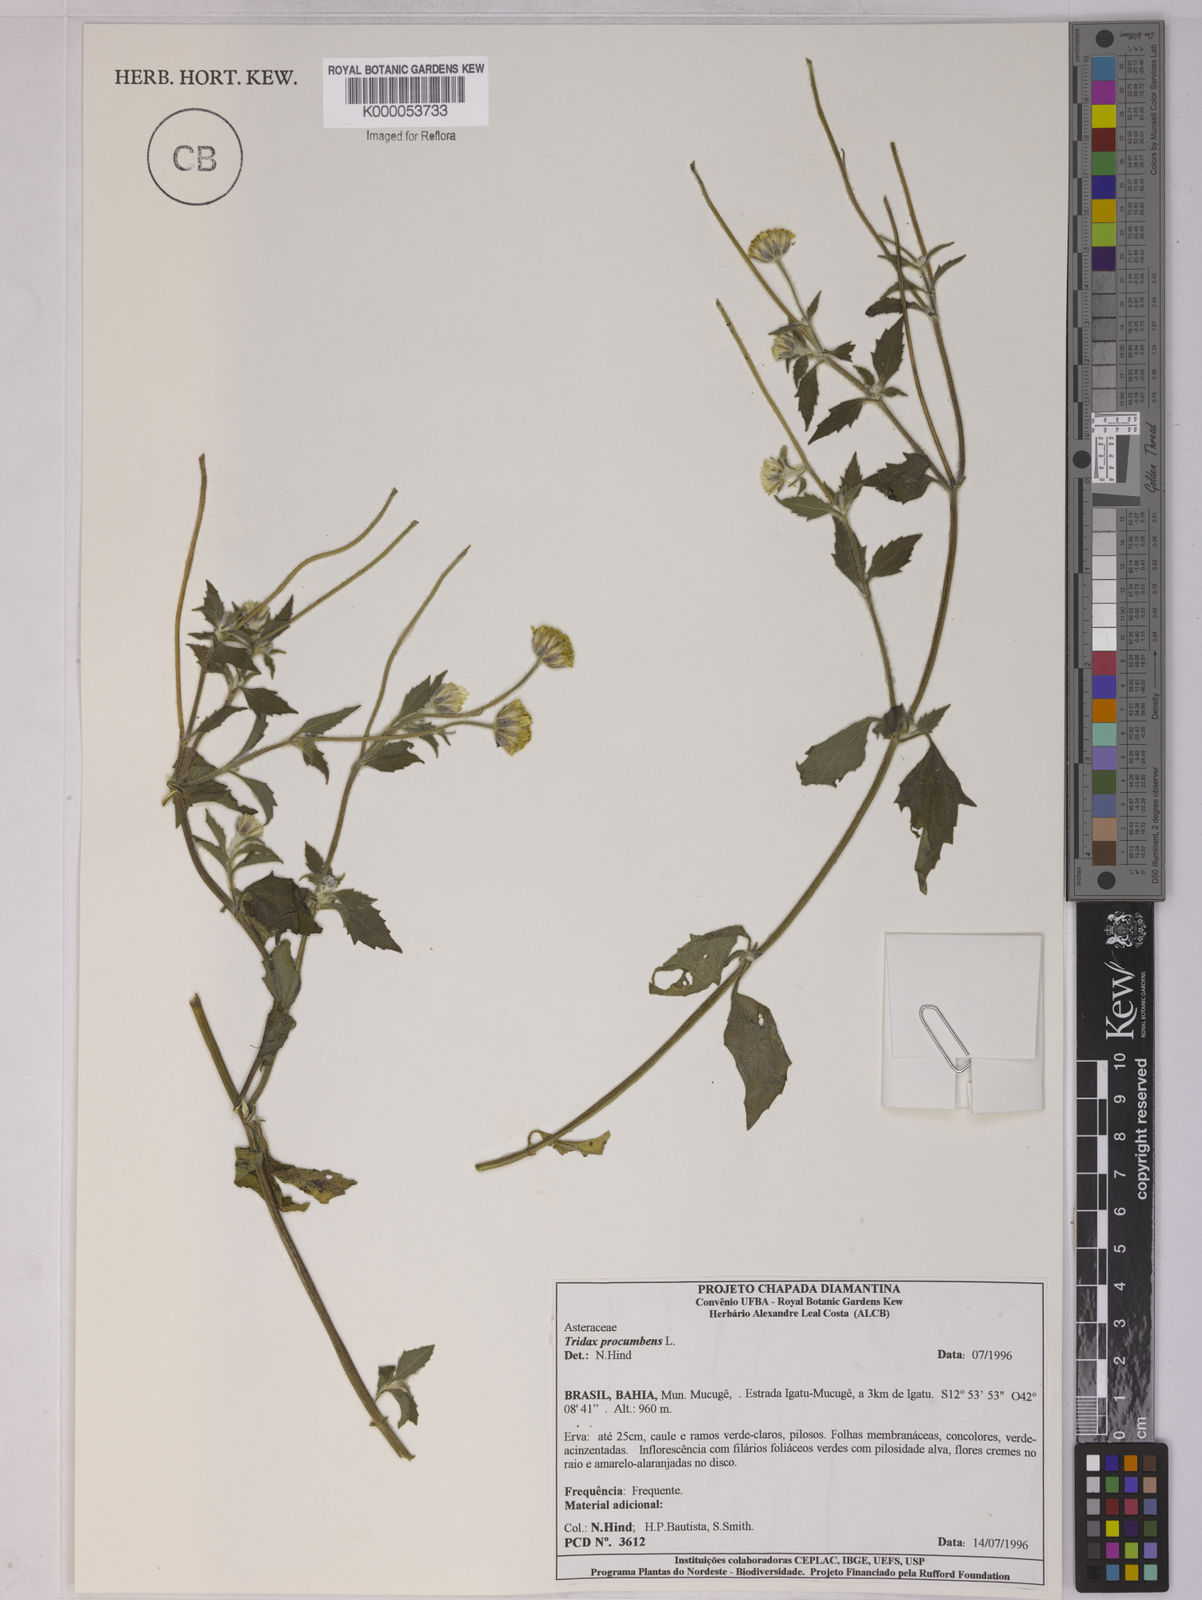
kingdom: Plantae
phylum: Tracheophyta
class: Magnoliopsida
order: Asterales
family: Asteraceae
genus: Tridax
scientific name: Tridax procumbens
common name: Coatbuttons
